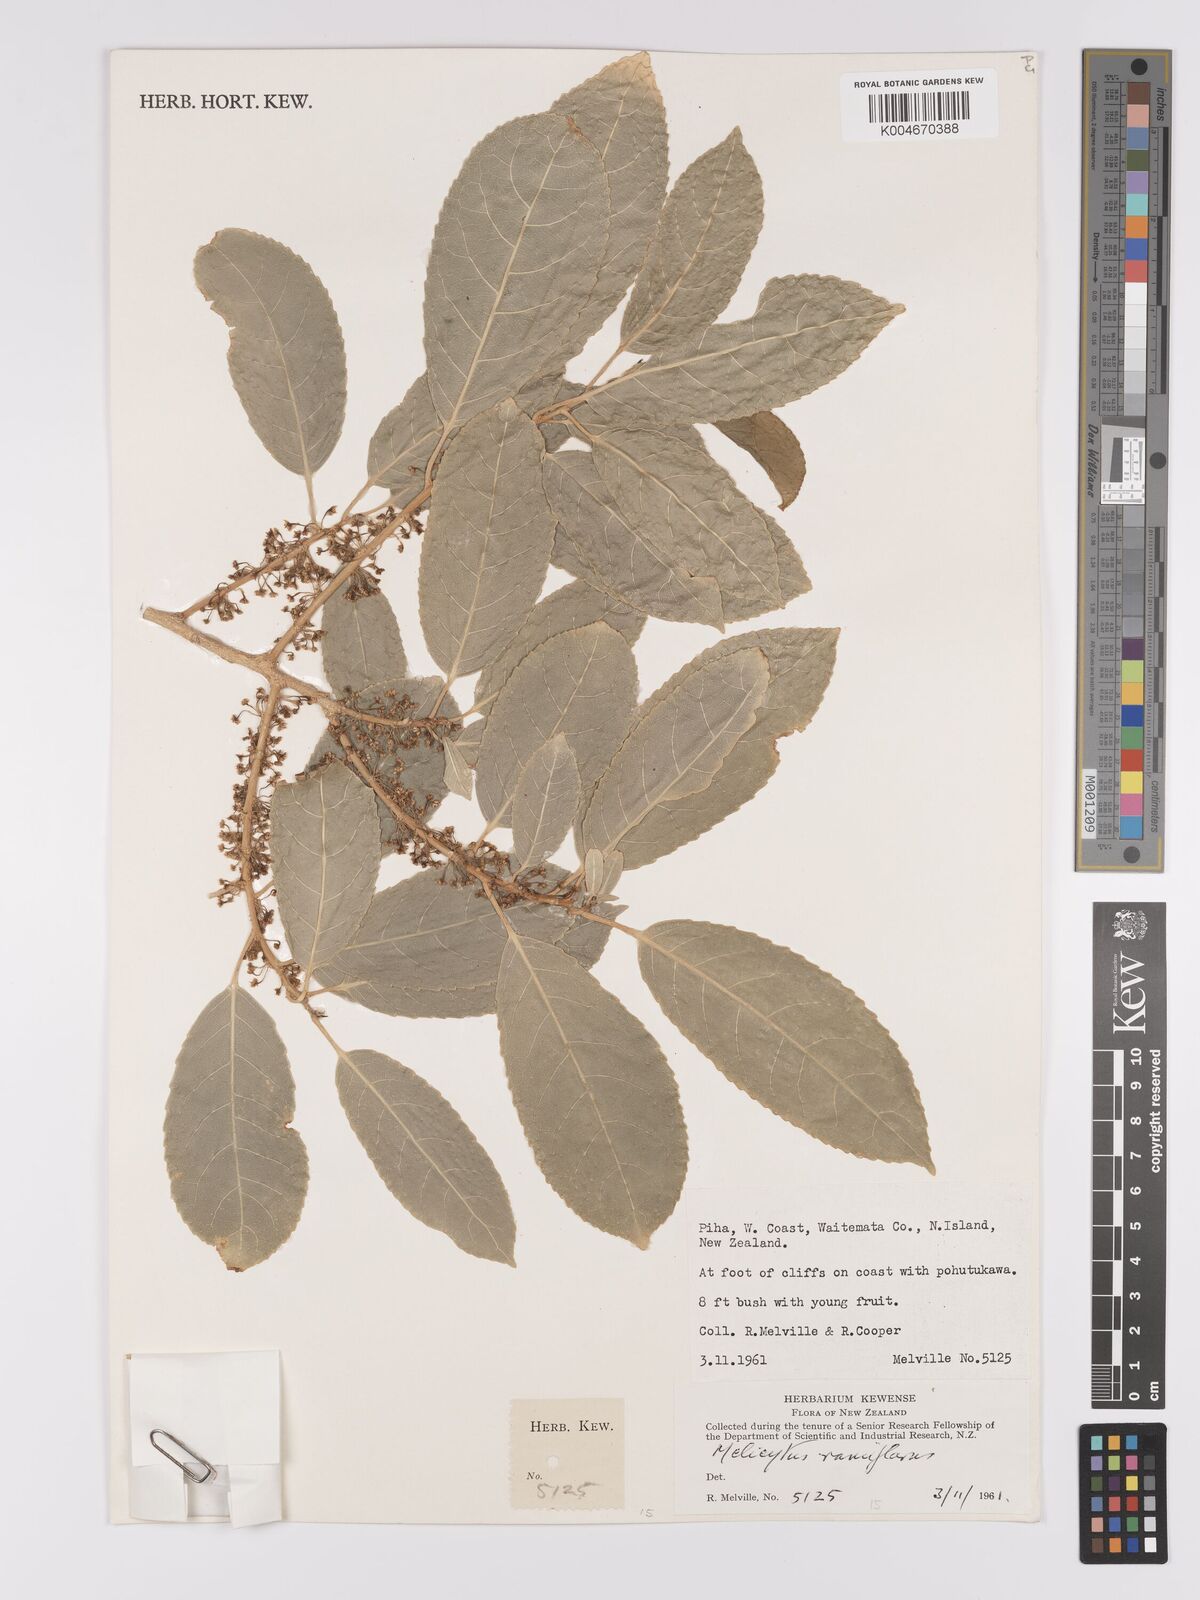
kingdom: Plantae
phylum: Tracheophyta
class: Magnoliopsida
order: Malpighiales
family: Violaceae
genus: Melicytus
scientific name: Melicytus ramiflorus
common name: Mahoe
